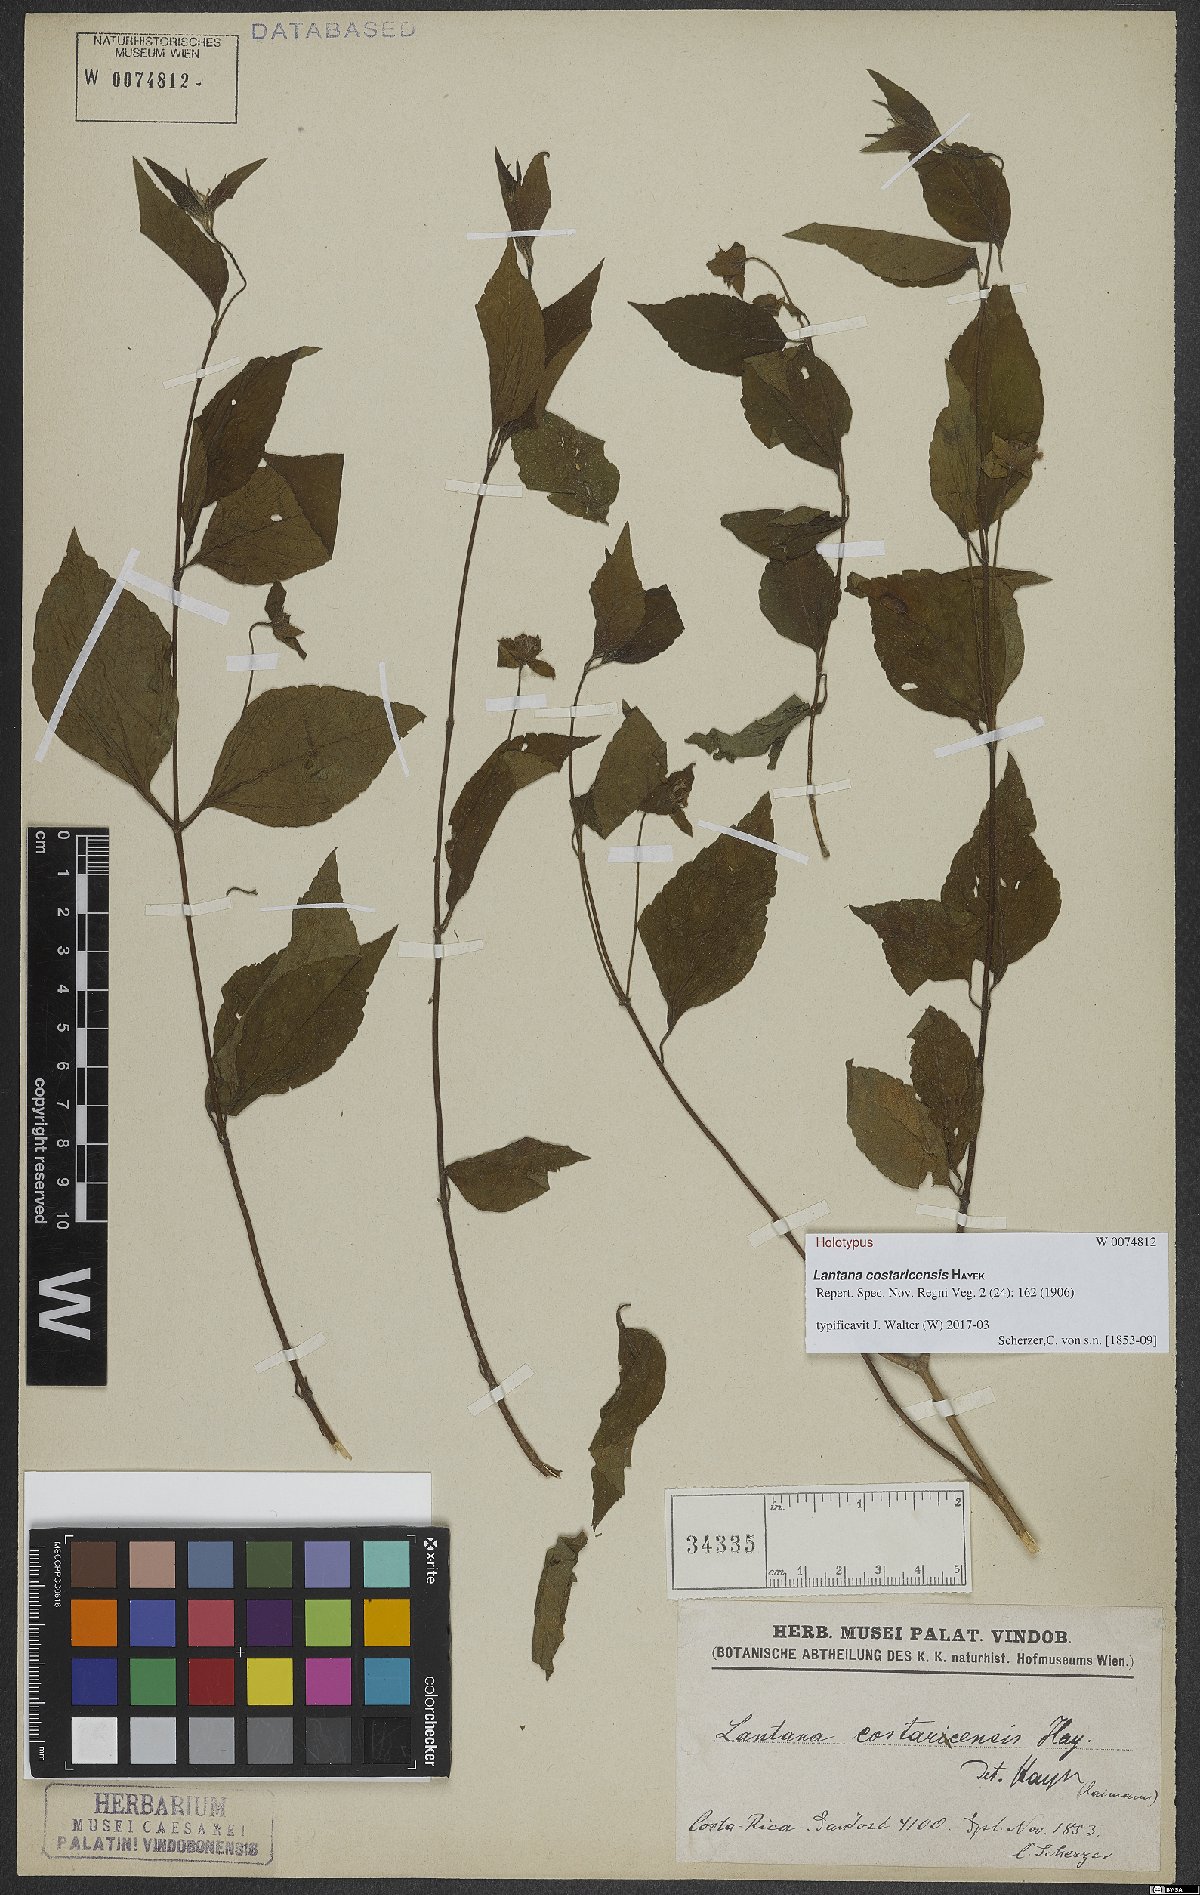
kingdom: Plantae
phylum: Tracheophyta
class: Magnoliopsida
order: Lamiales
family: Verbenaceae
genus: Lantana
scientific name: Lantana hirta
